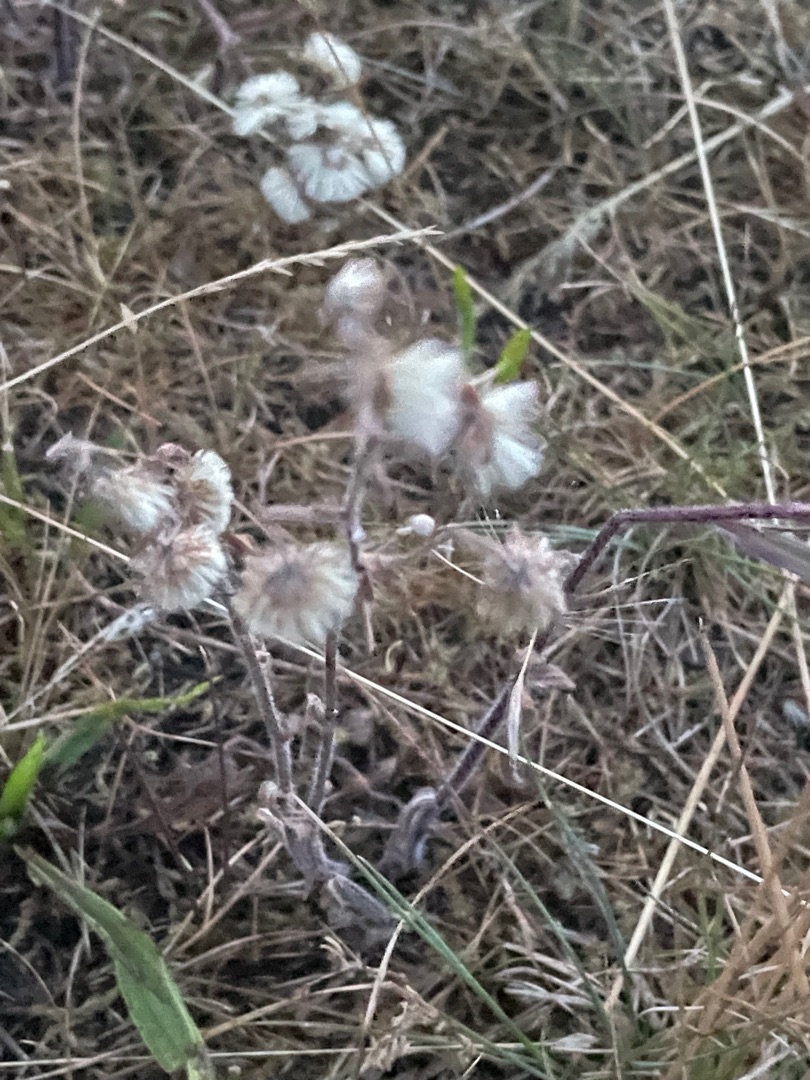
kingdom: Plantae
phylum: Tracheophyta
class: Magnoliopsida
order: Asterales
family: Asteraceae
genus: Erigeron
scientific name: Erigeron acris
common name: Bitter bakkestjerne
